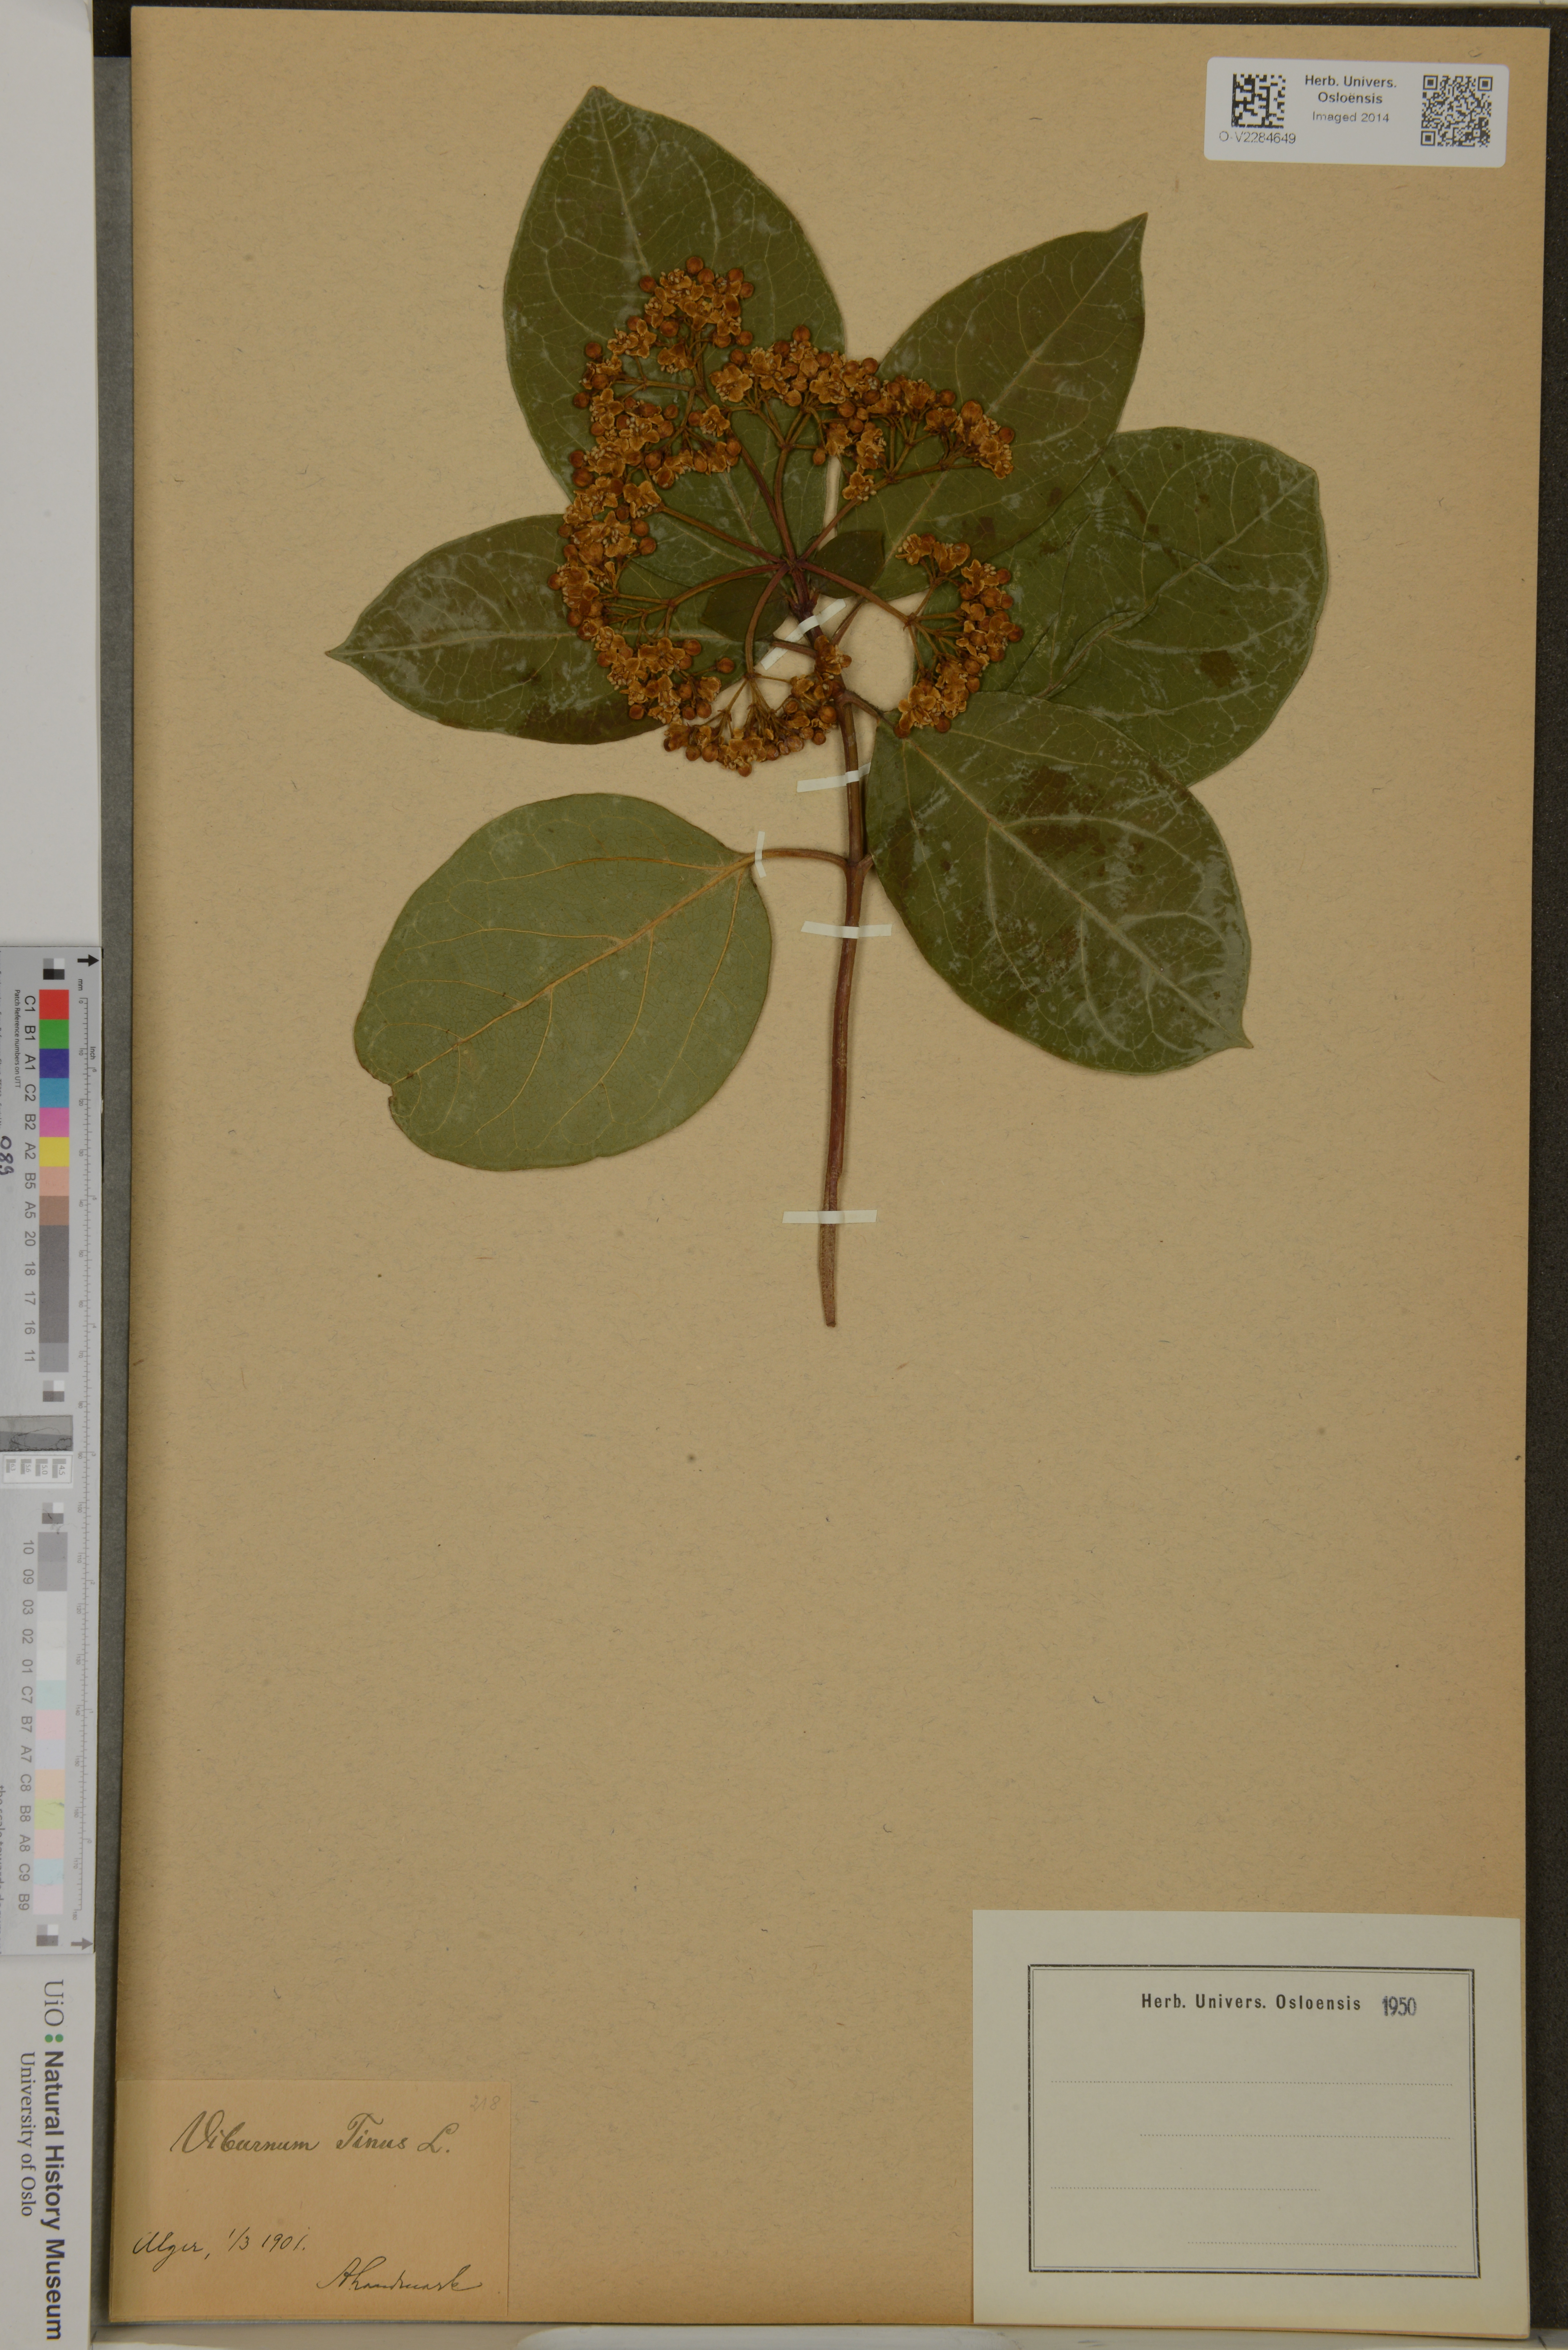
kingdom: Plantae
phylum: Tracheophyta
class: Magnoliopsida
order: Dipsacales
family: Viburnaceae
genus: Viburnum
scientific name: Viburnum tinus
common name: Laurustinus
